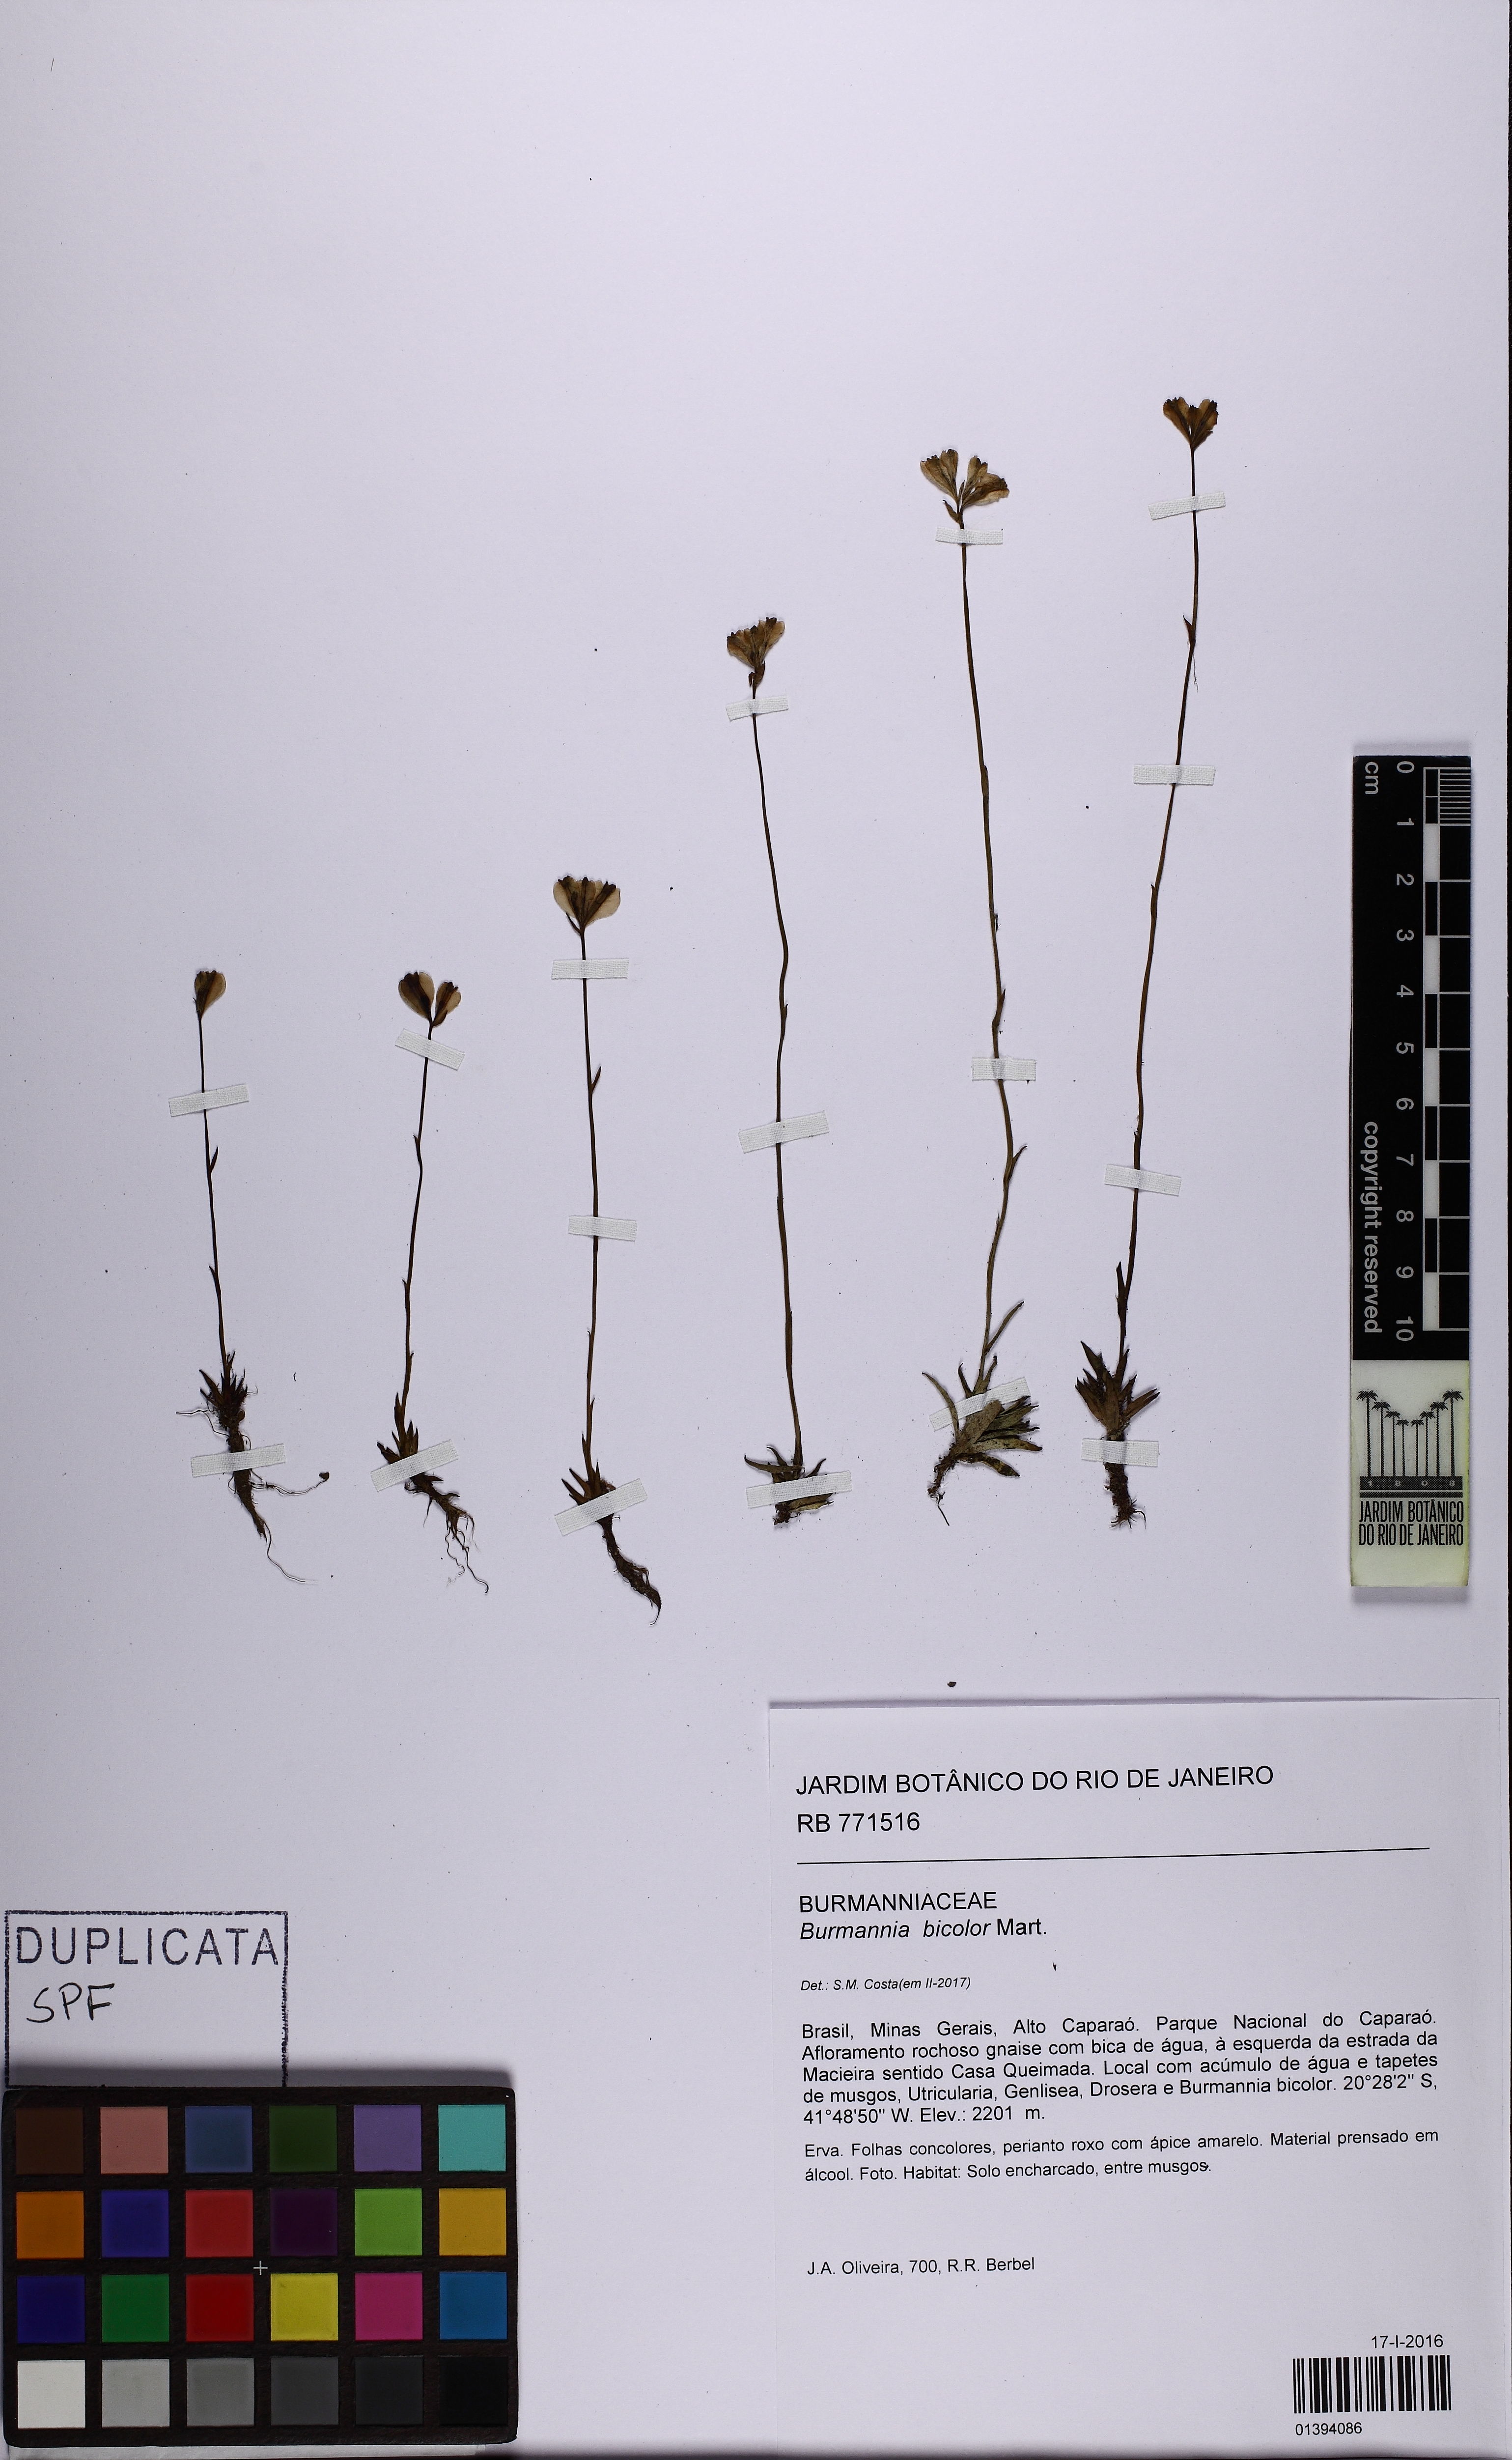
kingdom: Plantae
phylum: Tracheophyta
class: Liliopsida
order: Dioscoreales
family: Burmanniaceae
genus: Burmannia
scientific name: Burmannia bicolor
